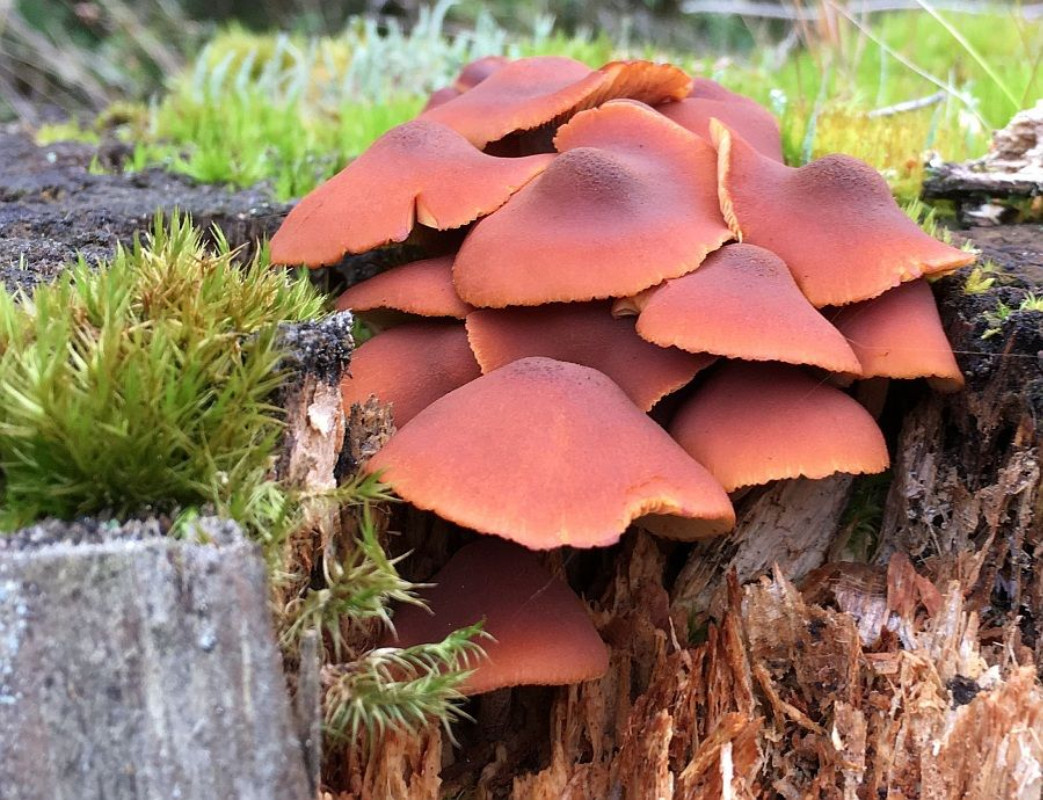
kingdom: Fungi
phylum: Basidiomycota
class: Agaricomycetes
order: Agaricales
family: Hymenogastraceae
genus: Gymnopilus
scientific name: Gymnopilus picreus
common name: puklet flammehat
